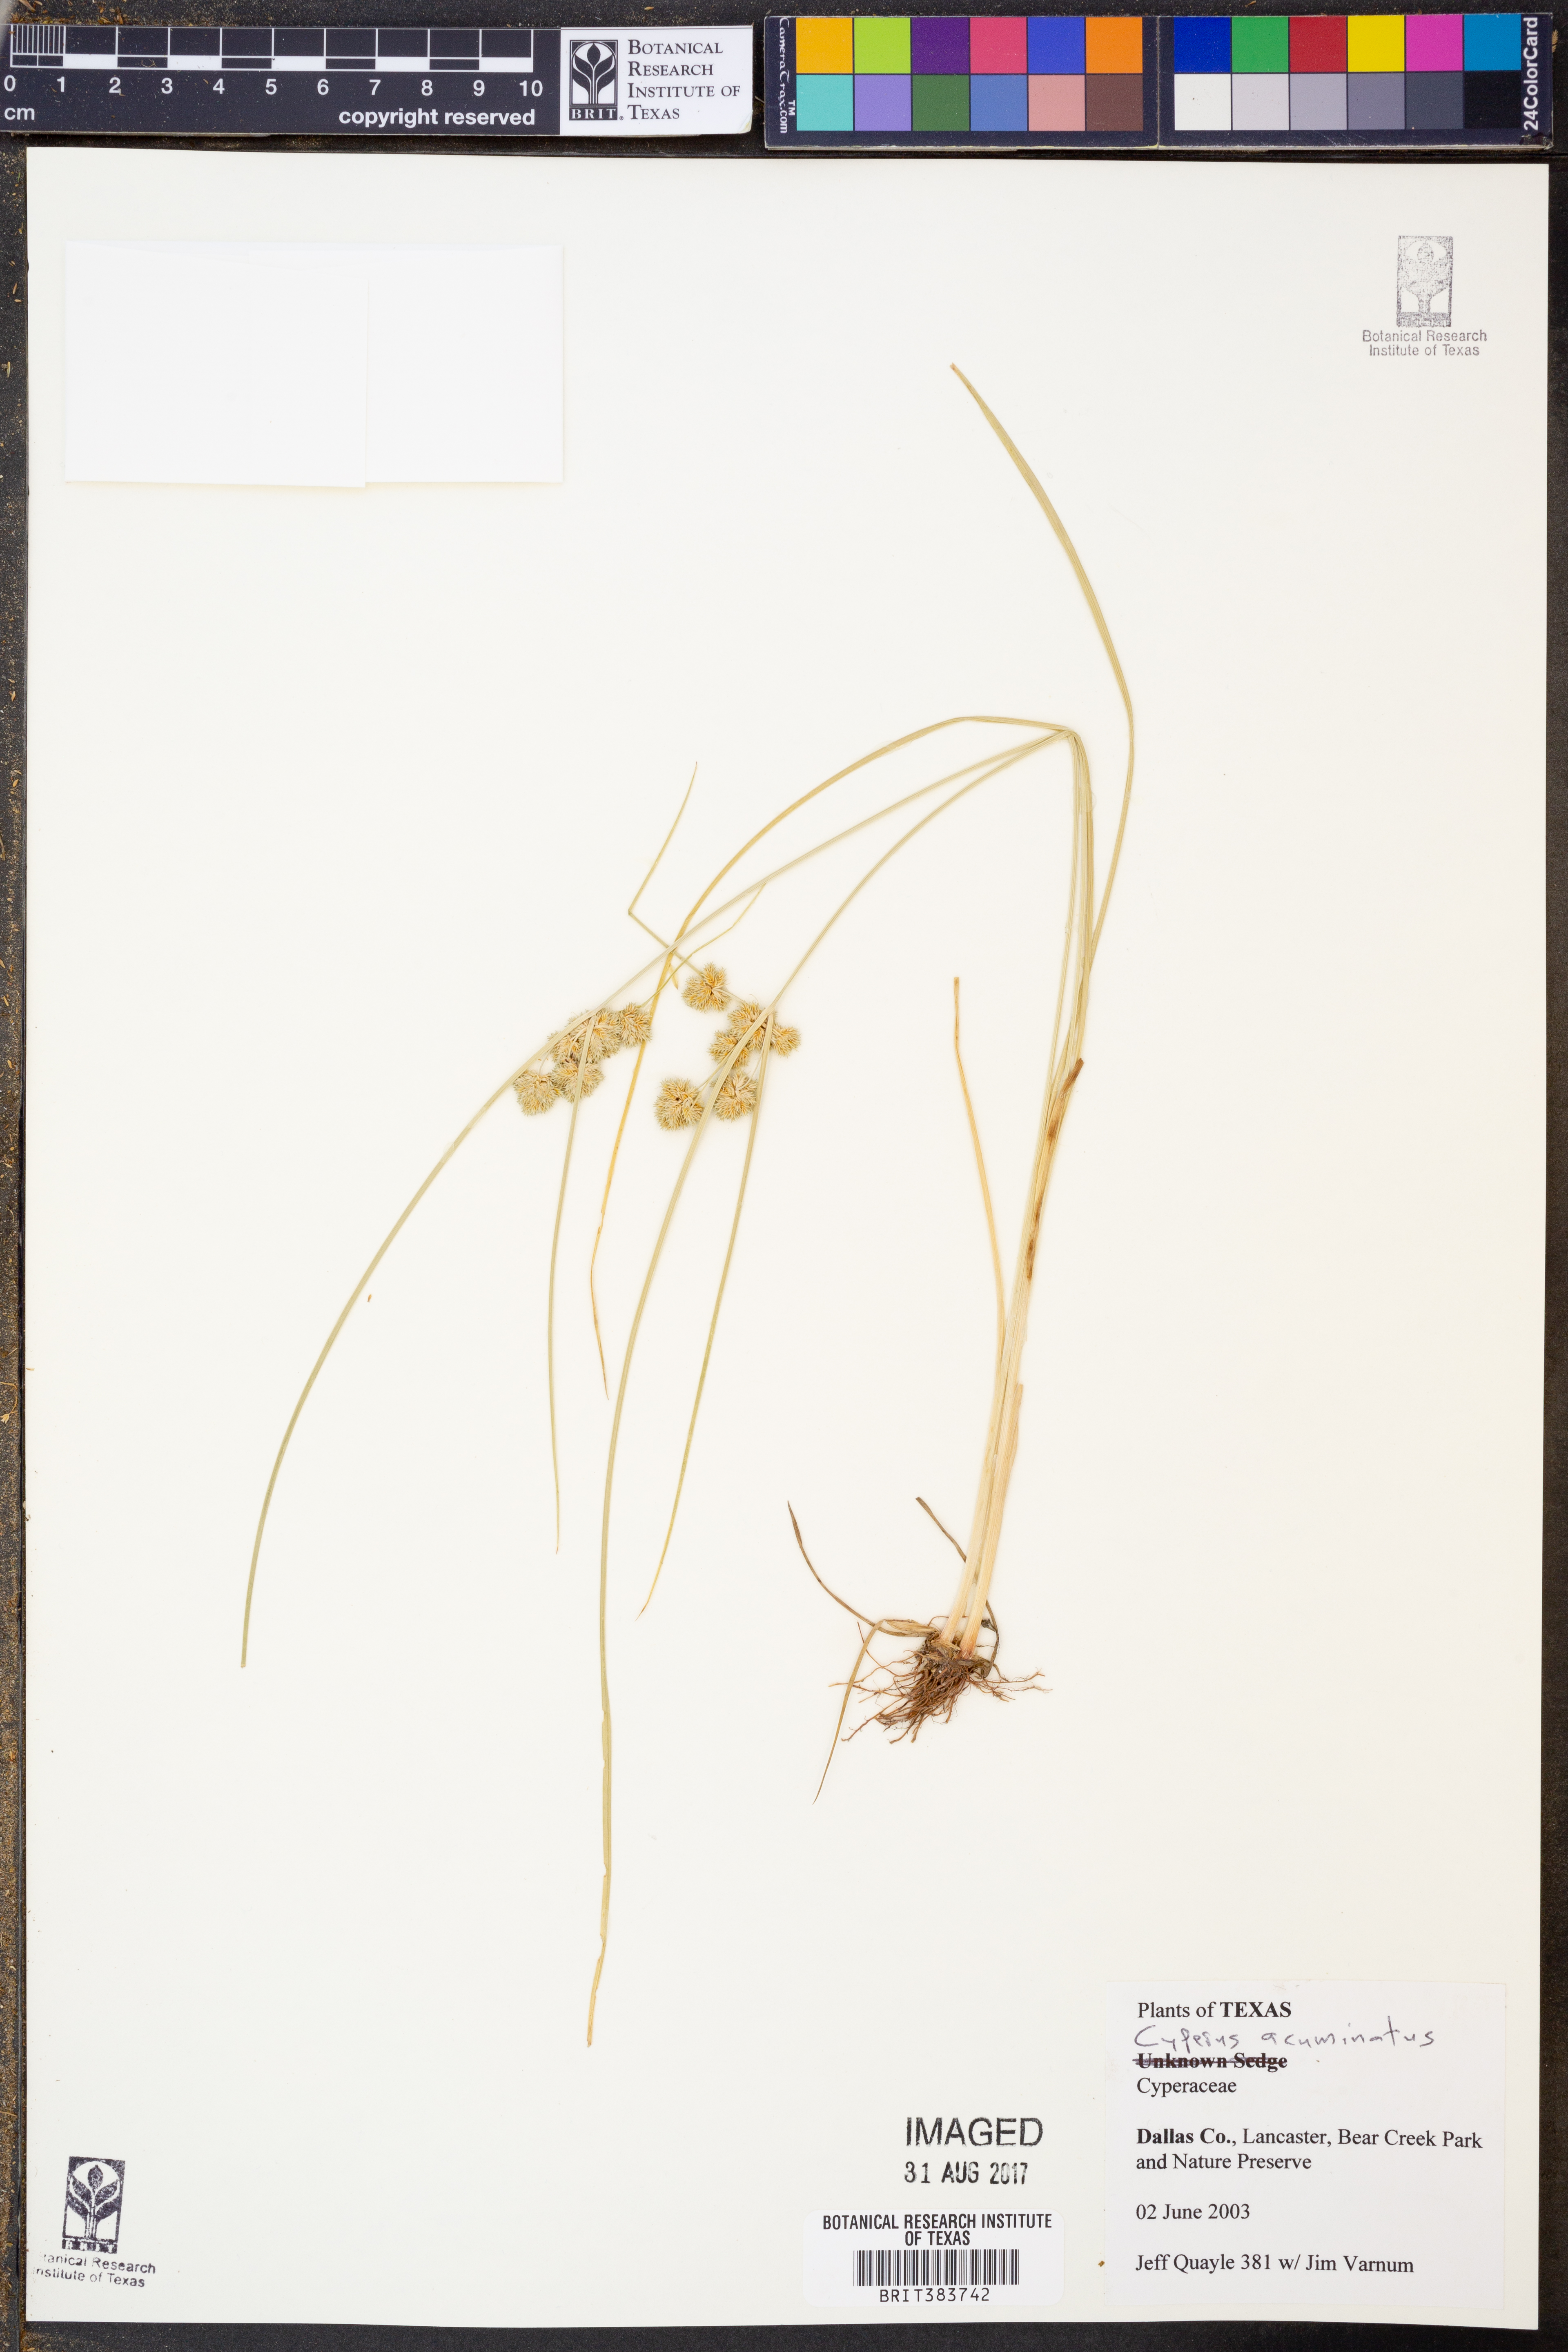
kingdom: Plantae
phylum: Tracheophyta
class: Liliopsida
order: Poales
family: Cyperaceae
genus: Cyperus
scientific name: Cyperus acuminatus
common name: Short-pointed cyperus
